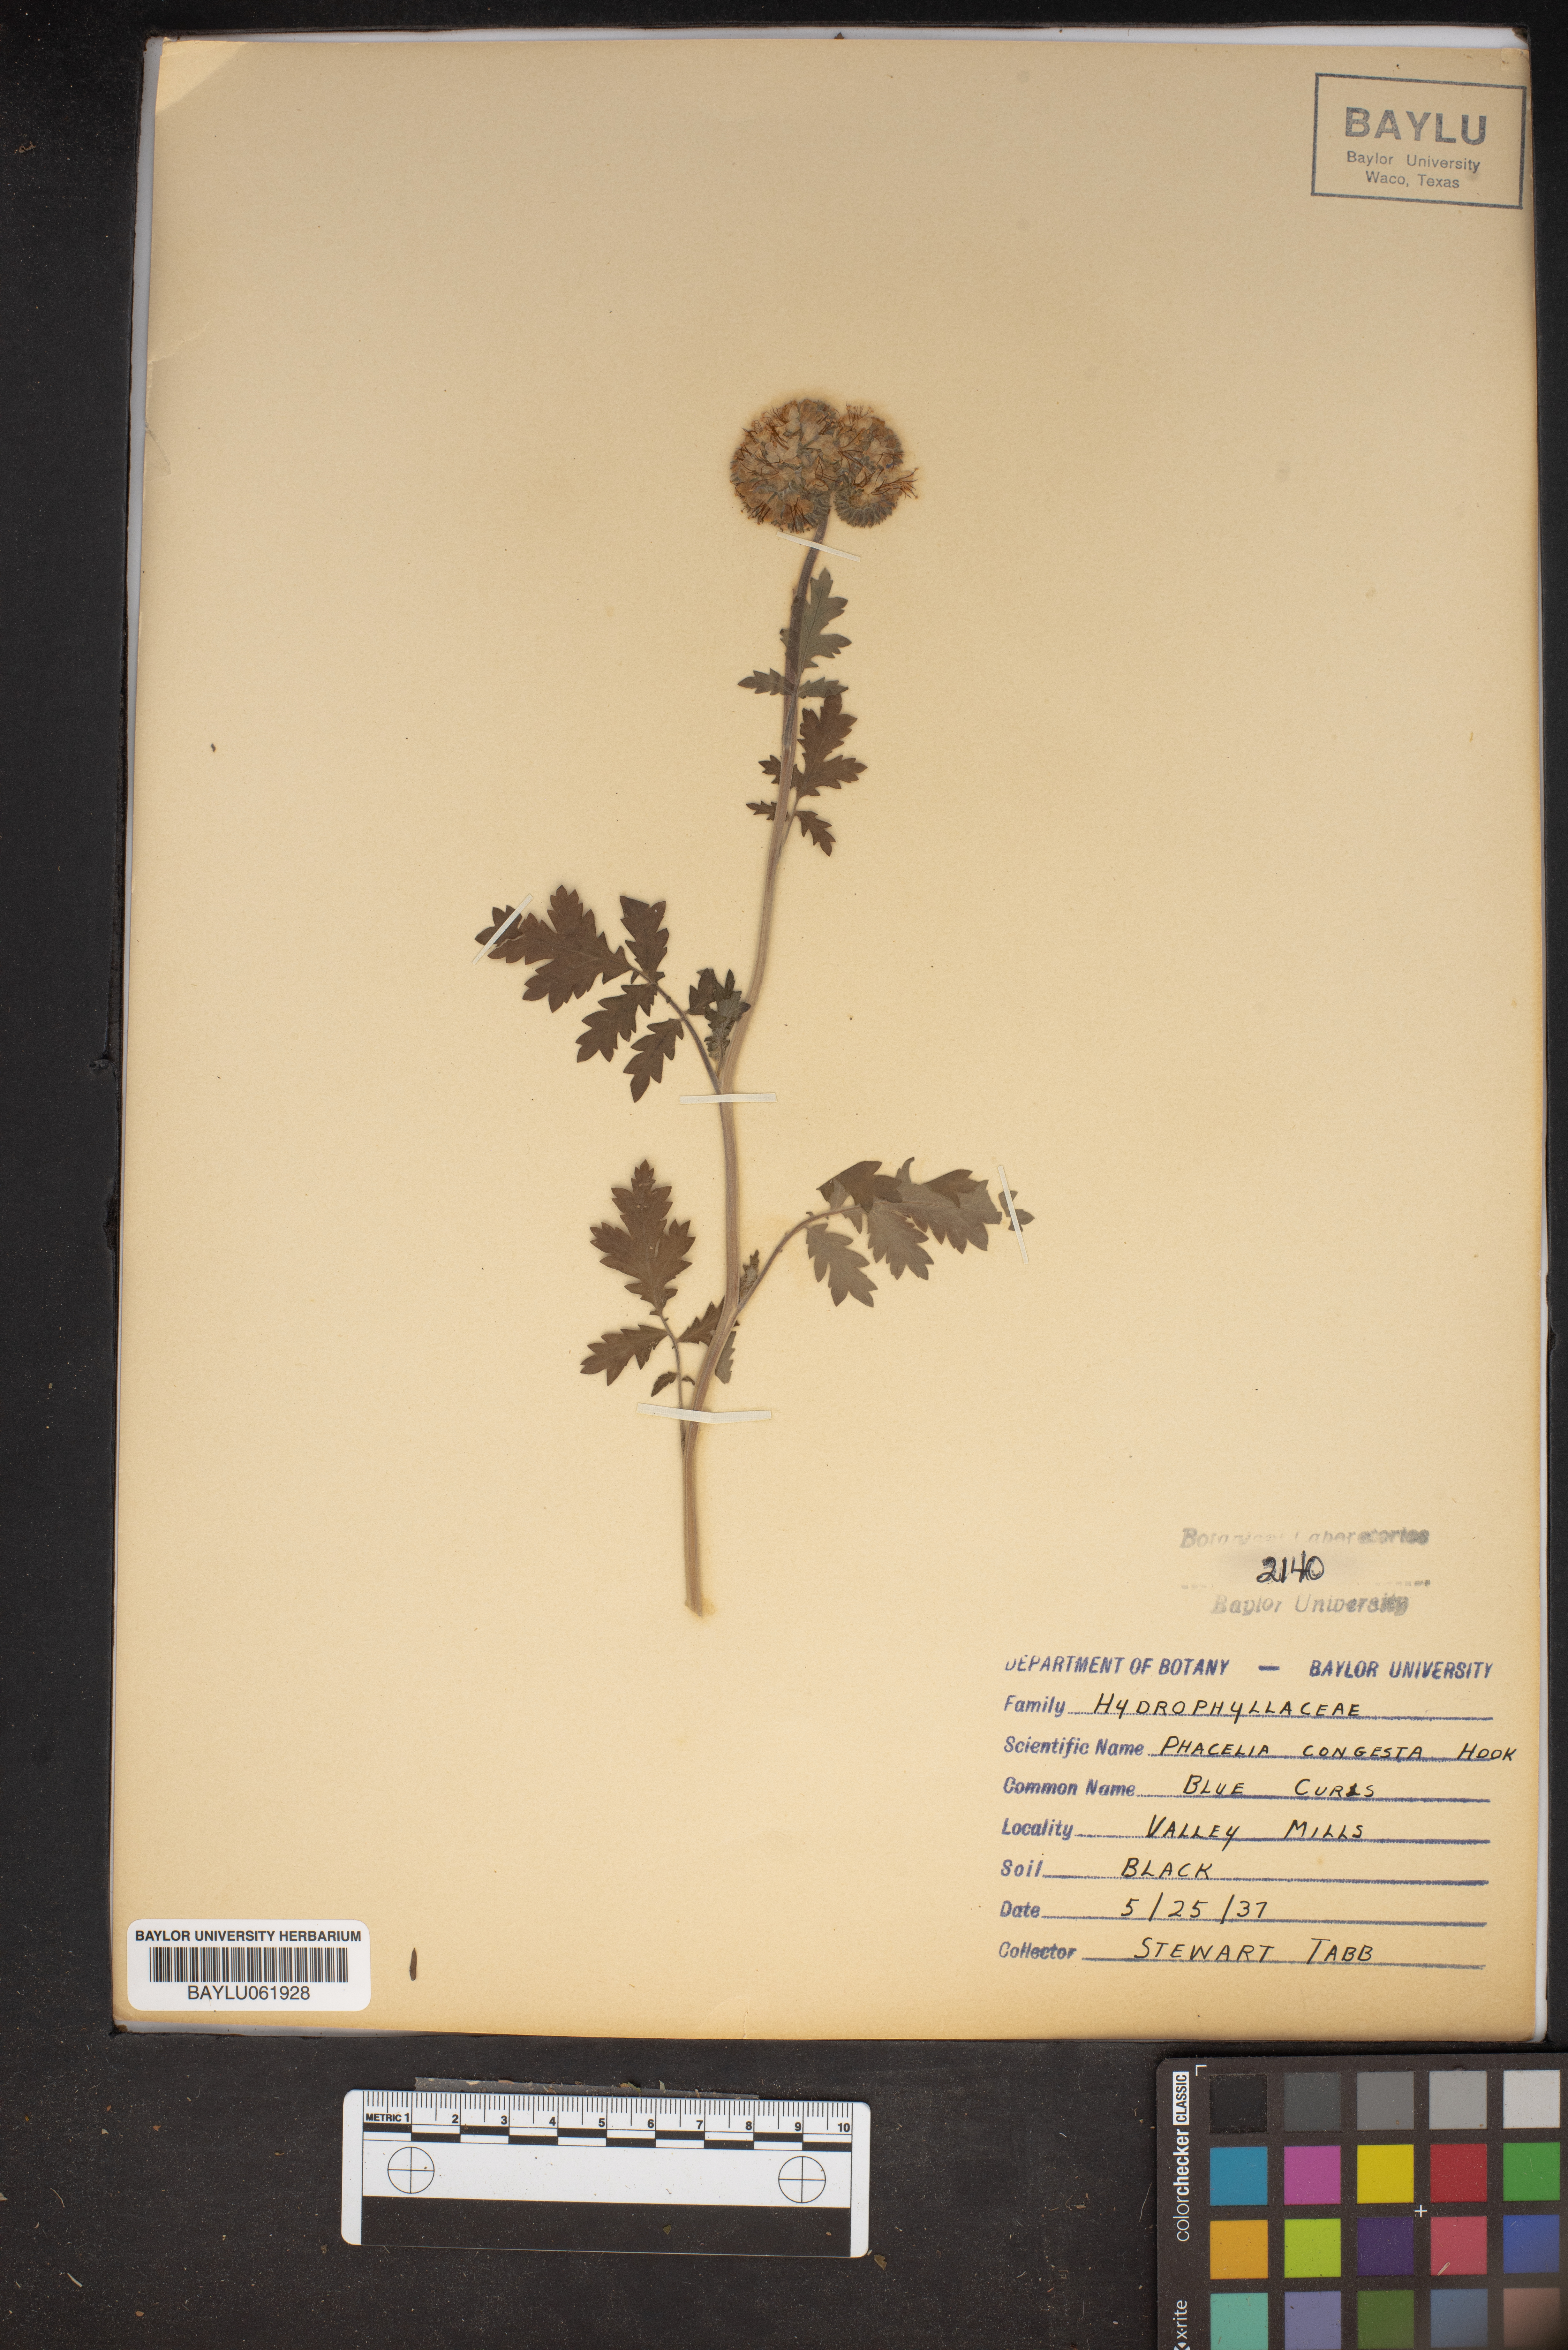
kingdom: Plantae
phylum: Tracheophyta
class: Magnoliopsida
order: Boraginales
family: Hydrophyllaceae
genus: Phacelia
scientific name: Phacelia congesta
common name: Blue curls
